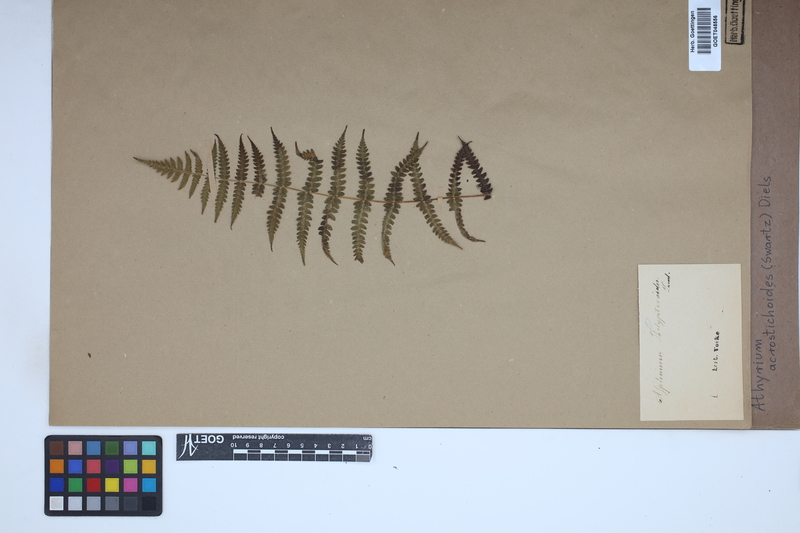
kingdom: Plantae
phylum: Tracheophyta
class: Polypodiopsida
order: Polypodiales
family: Athyriaceae
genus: Deparia
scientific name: Deparia acrostichoides
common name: Silver false spleenwort
